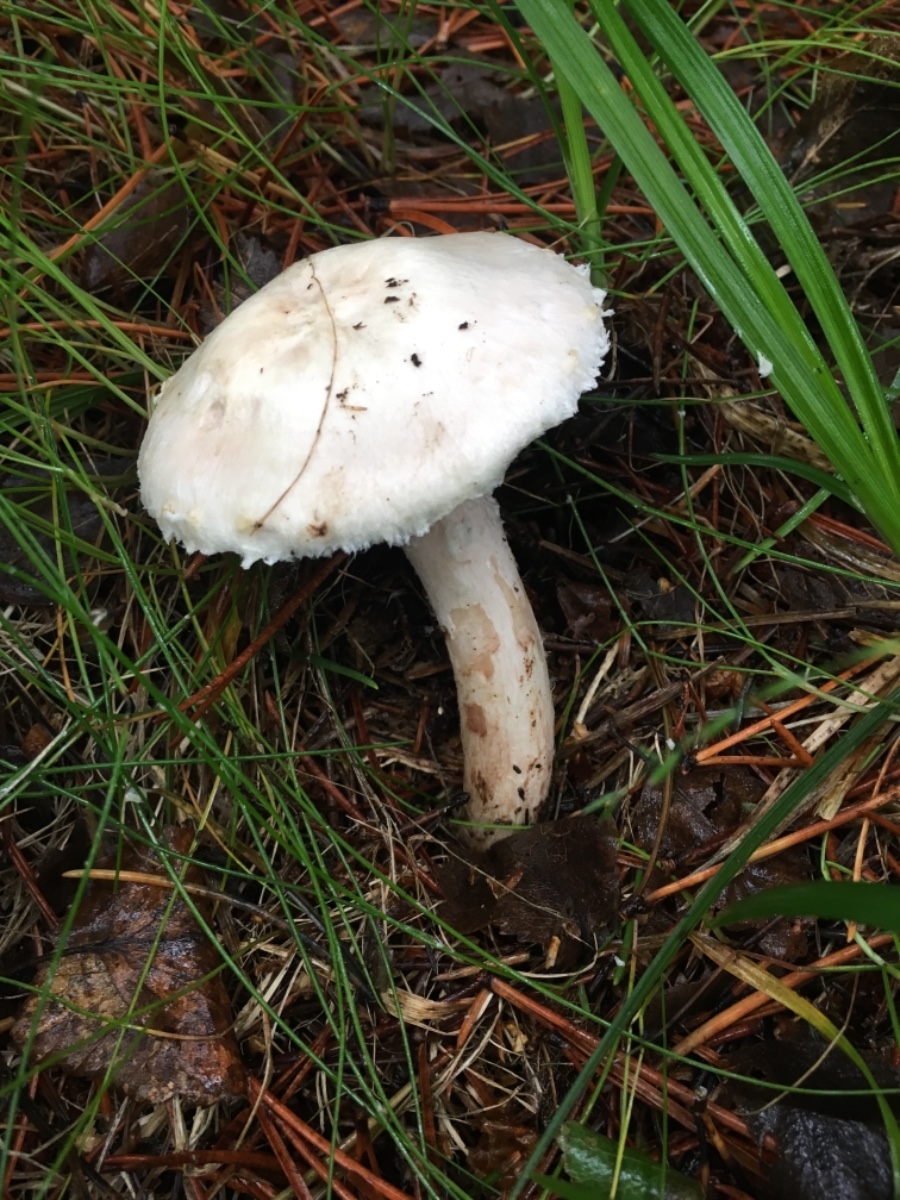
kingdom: Fungi
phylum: Basidiomycota
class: Agaricomycetes
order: Agaricales
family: Agaricaceae
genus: Agaricus
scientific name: Agaricus
